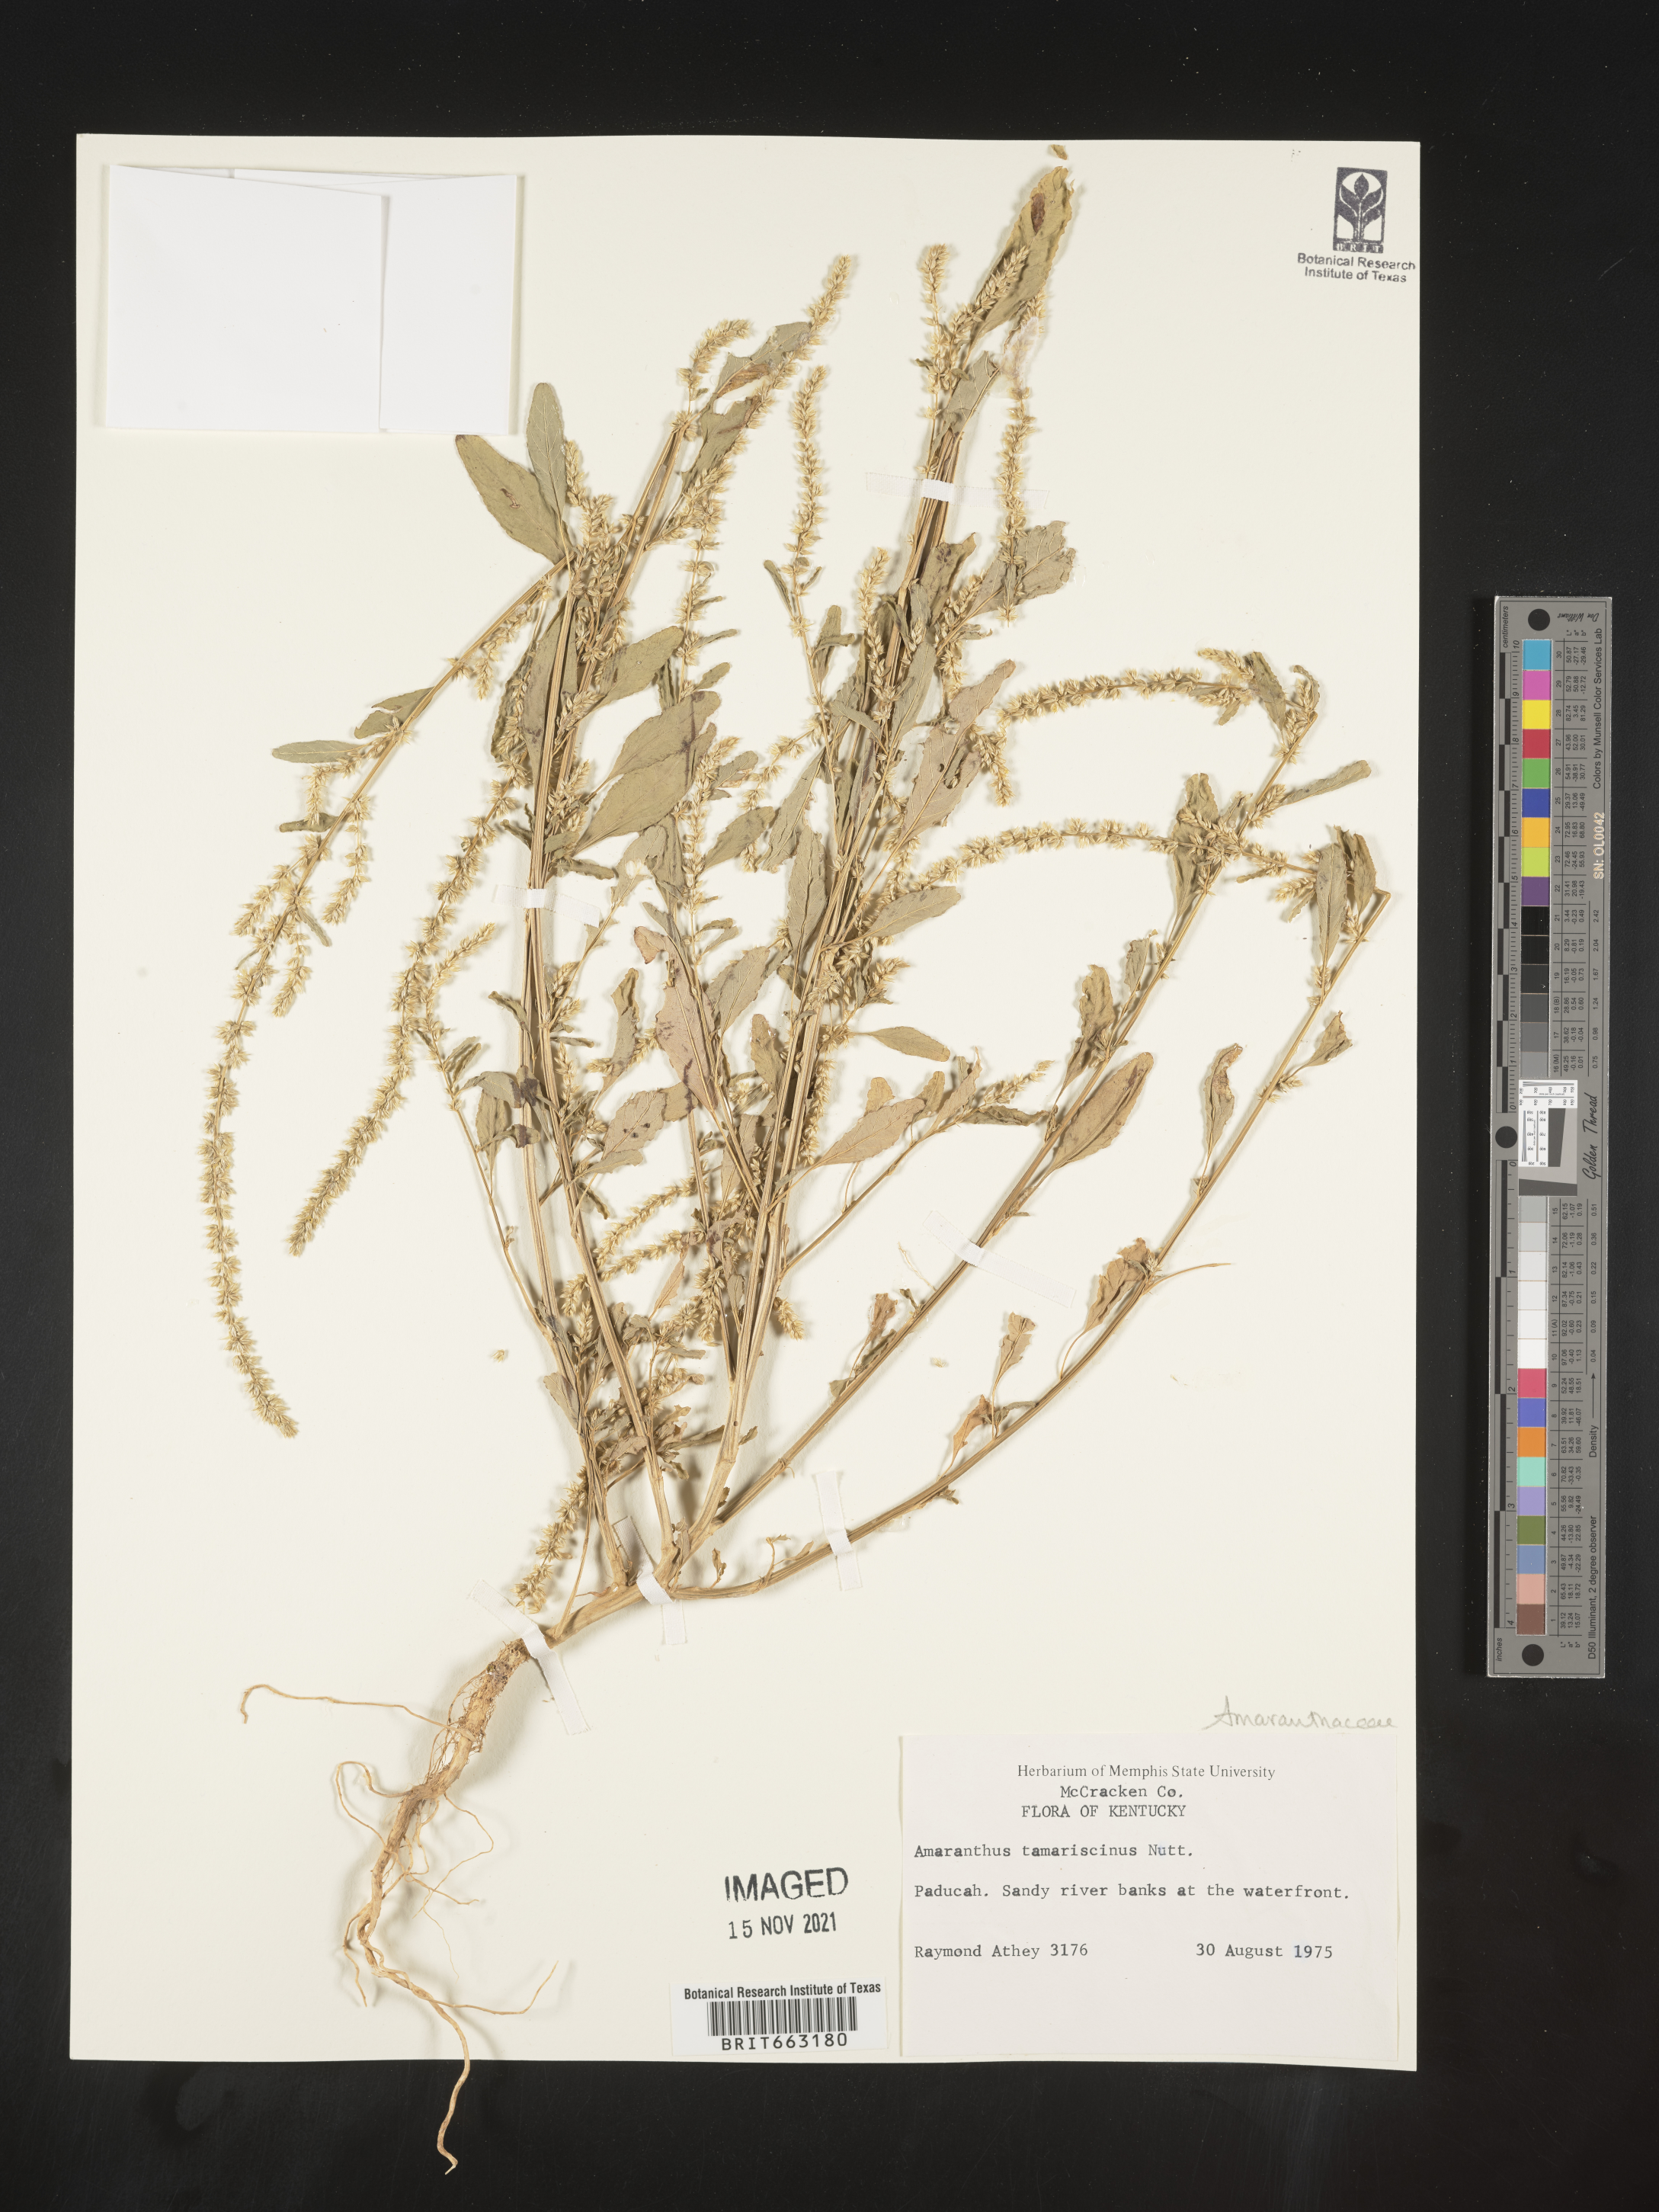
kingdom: Plantae
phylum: Tracheophyta
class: Magnoliopsida
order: Caryophyllales
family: Amaranthaceae
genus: Amaranthus
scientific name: Amaranthus tamariscinus
